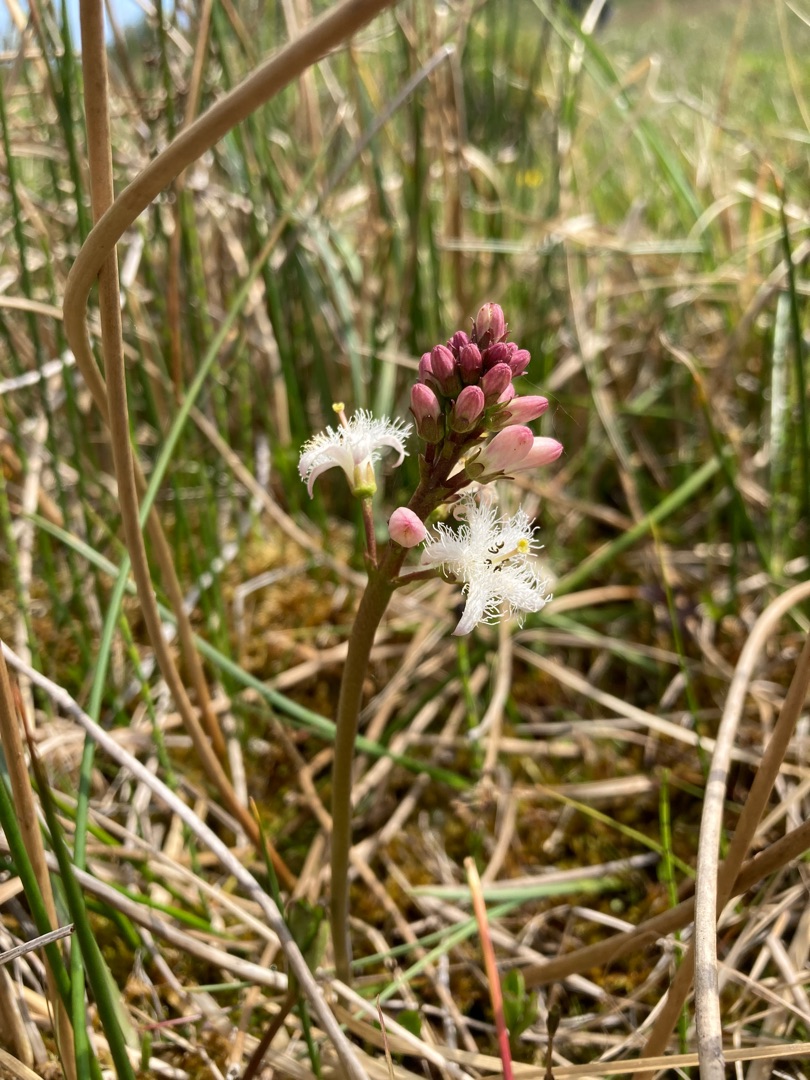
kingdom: Plantae
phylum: Tracheophyta
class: Magnoliopsida
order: Asterales
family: Menyanthaceae
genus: Menyanthes
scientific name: Menyanthes trifoliata
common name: Bukkeblad
